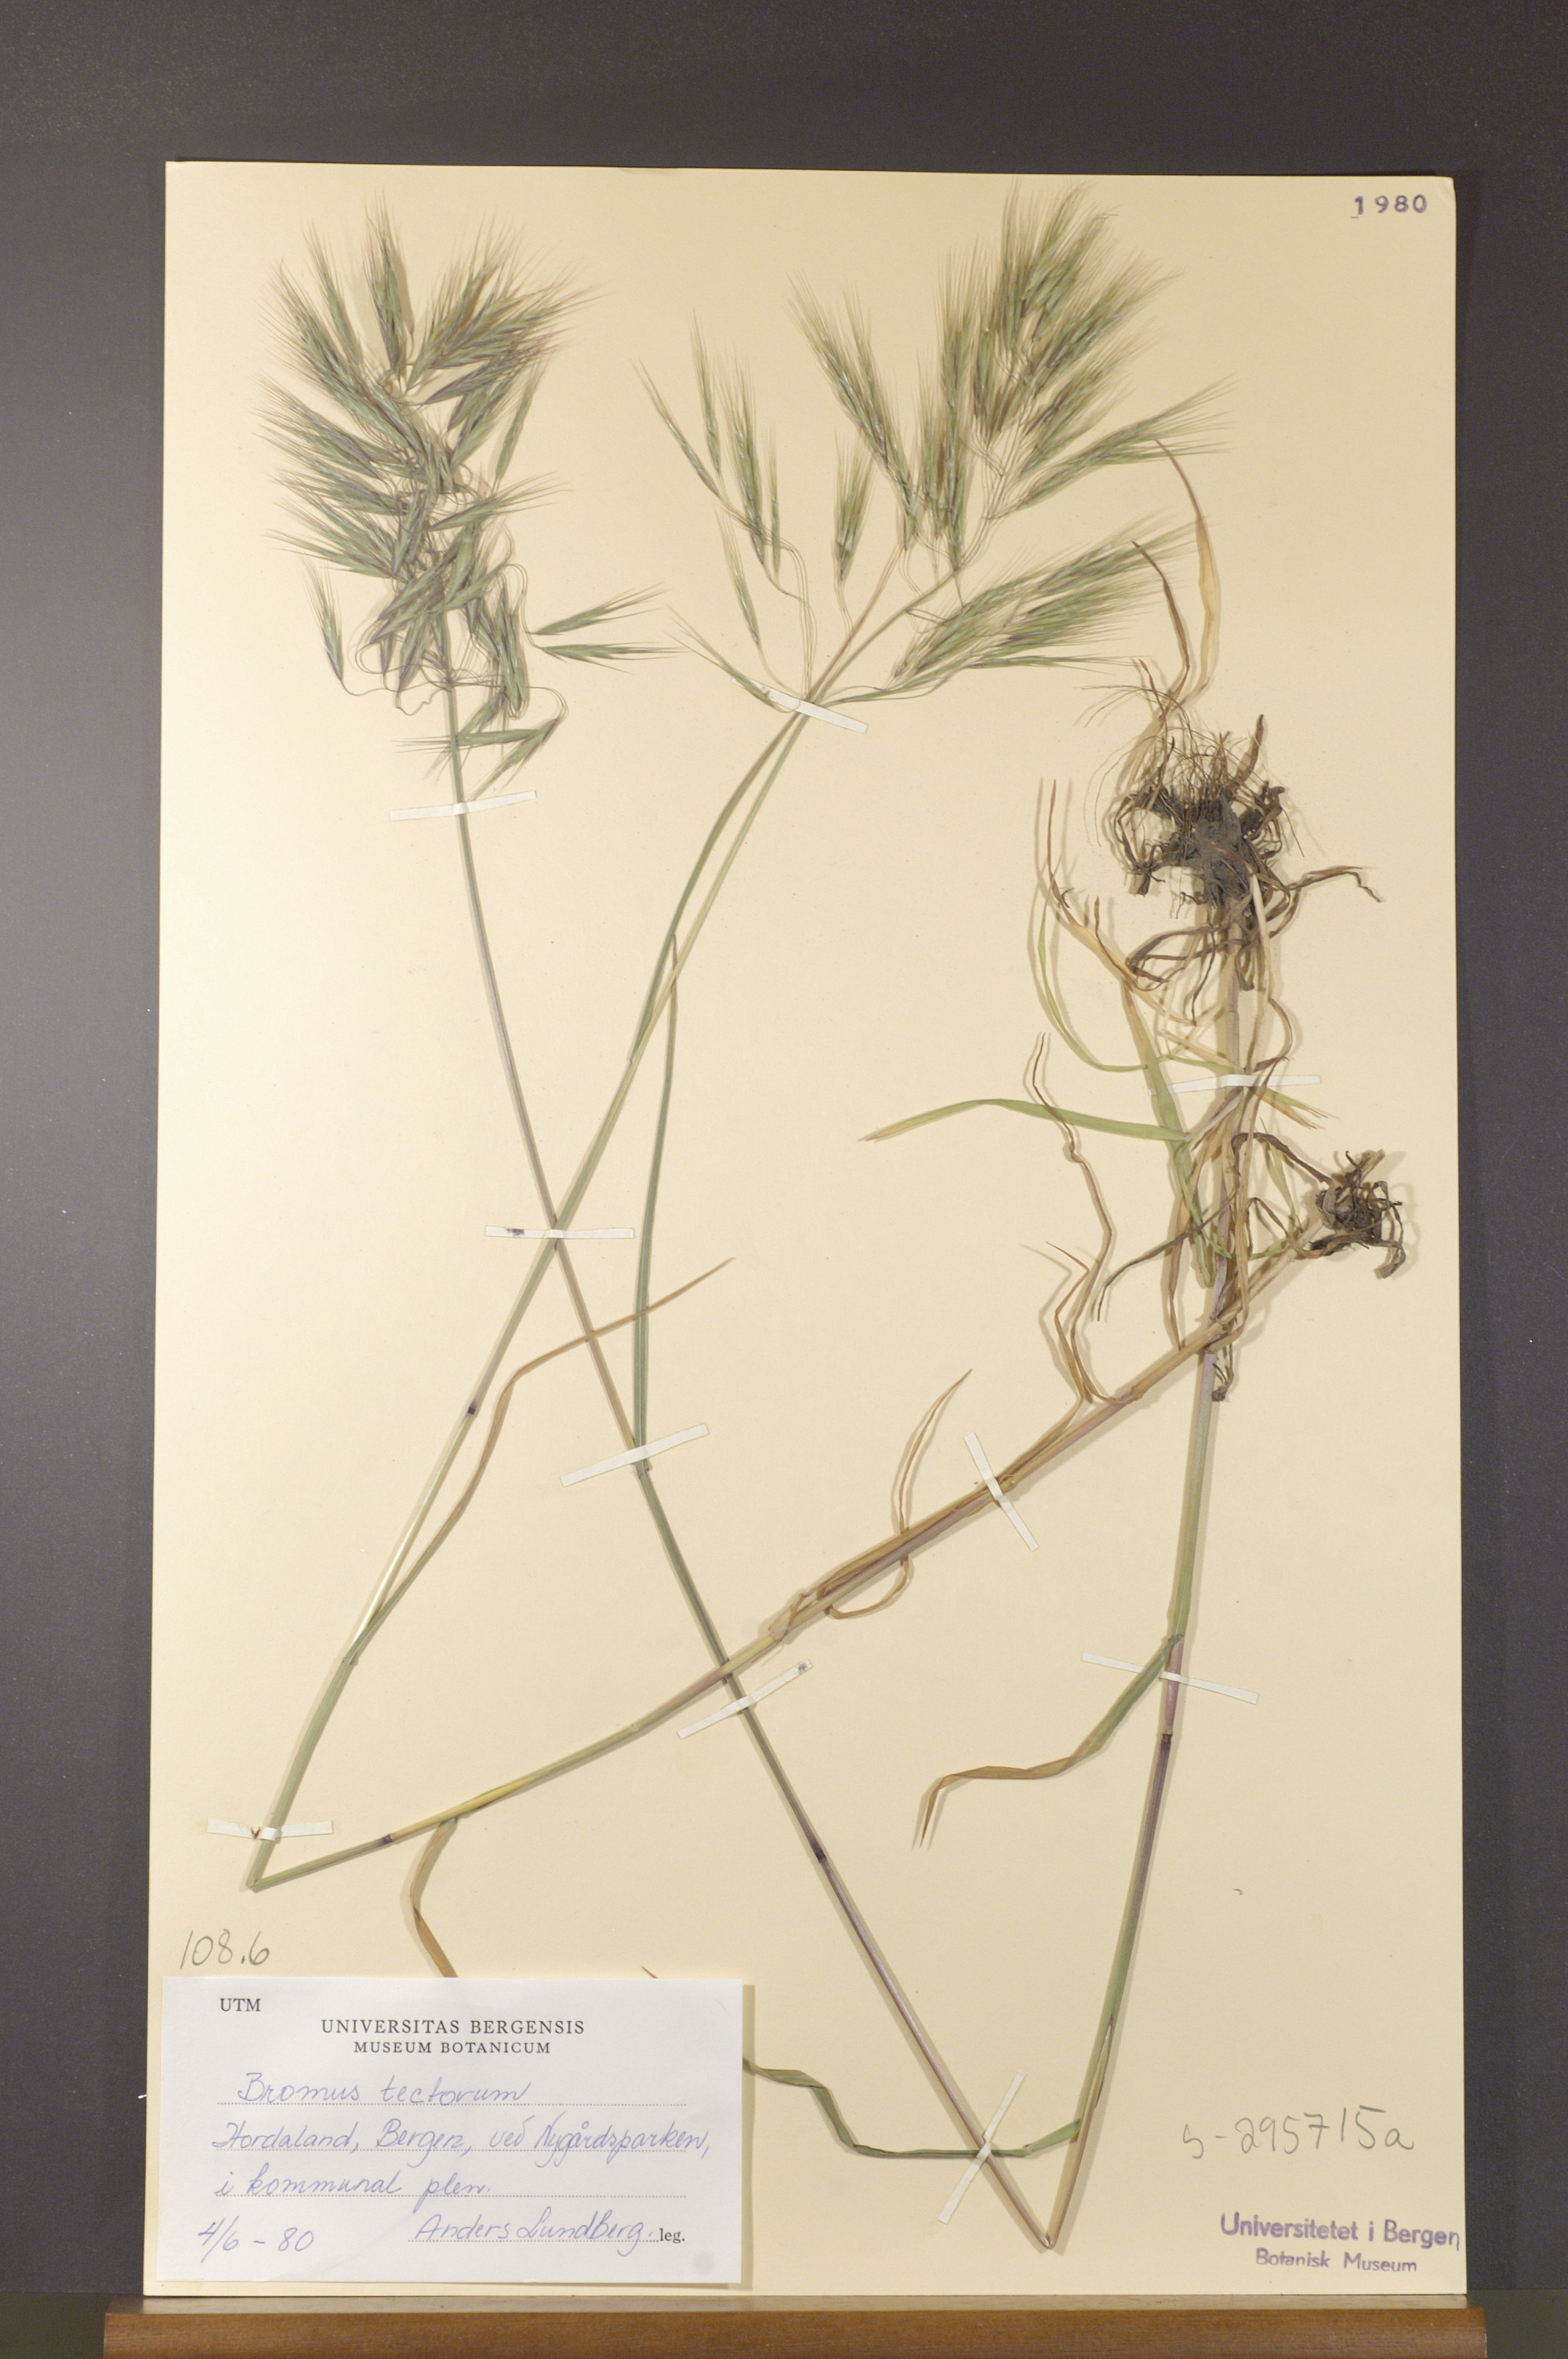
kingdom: Plantae
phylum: Tracheophyta
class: Liliopsida
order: Poales
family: Poaceae
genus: Bromus
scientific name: Bromus tectorum
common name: Cheatgrass
